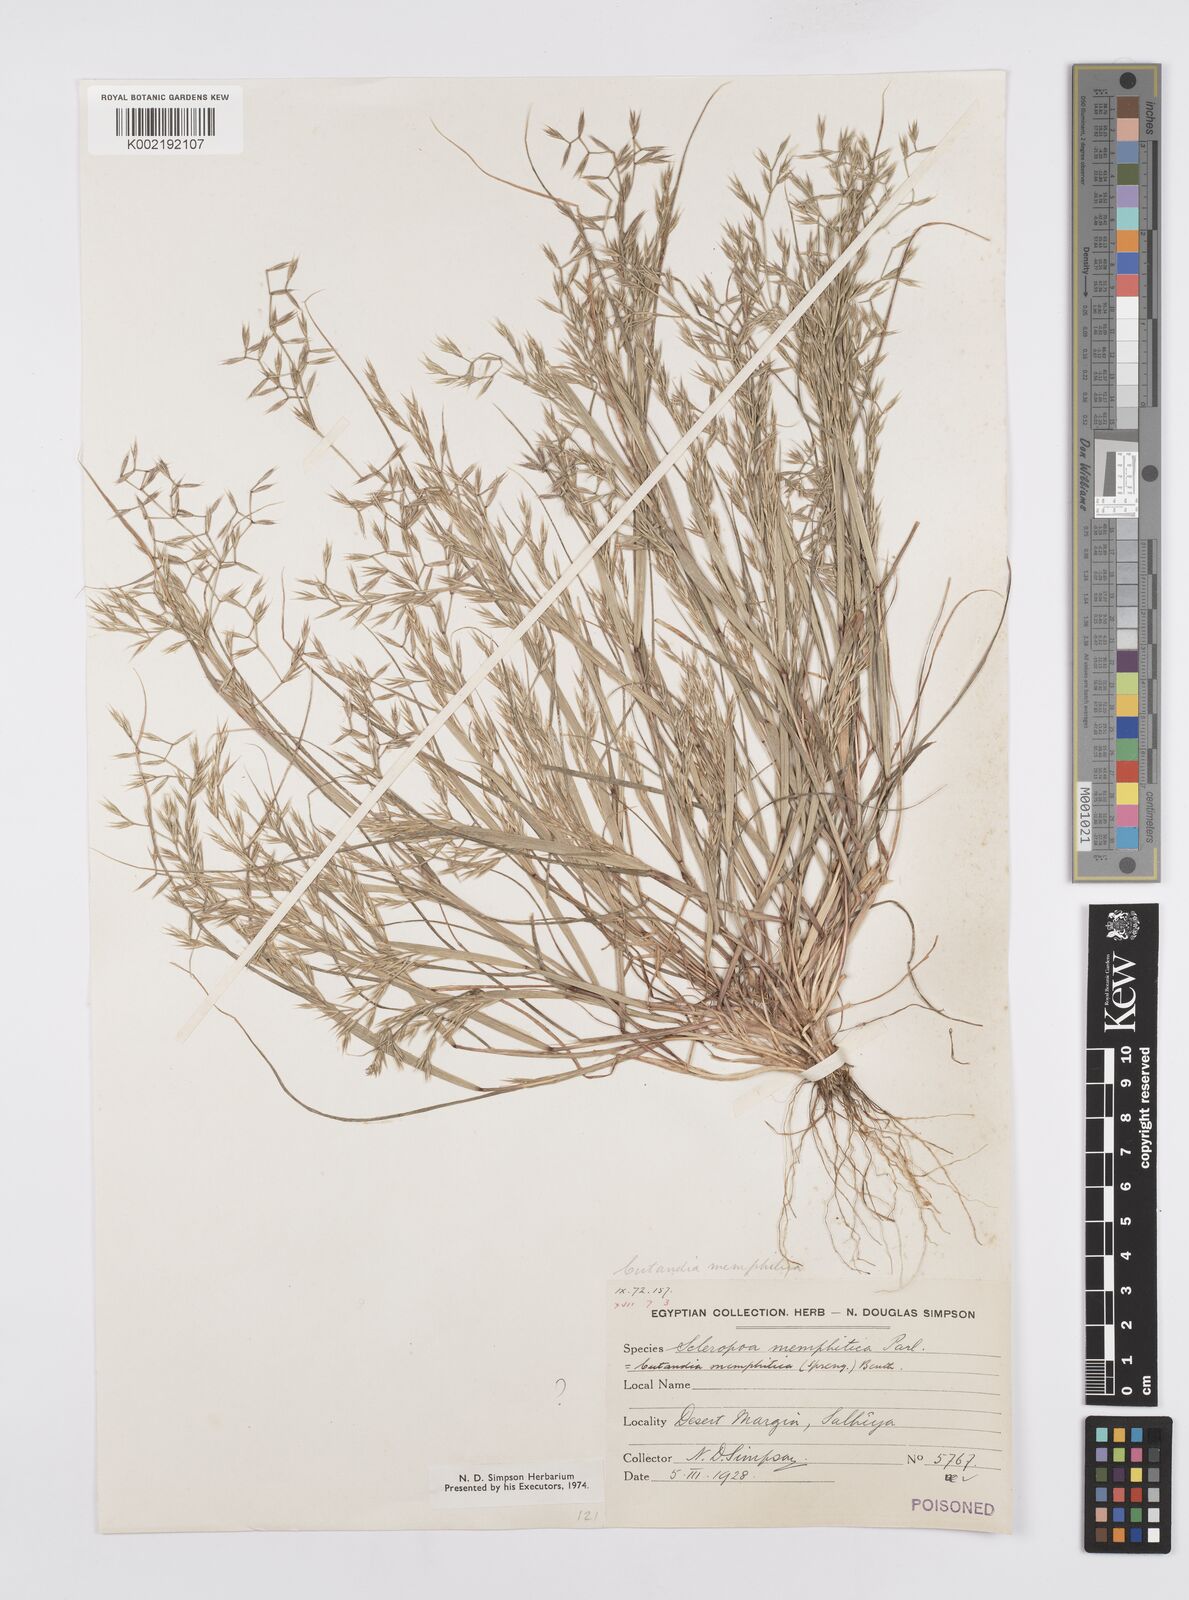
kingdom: Plantae
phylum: Tracheophyta
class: Liliopsida
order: Poales
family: Poaceae
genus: Cutandia
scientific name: Cutandia memphitica
